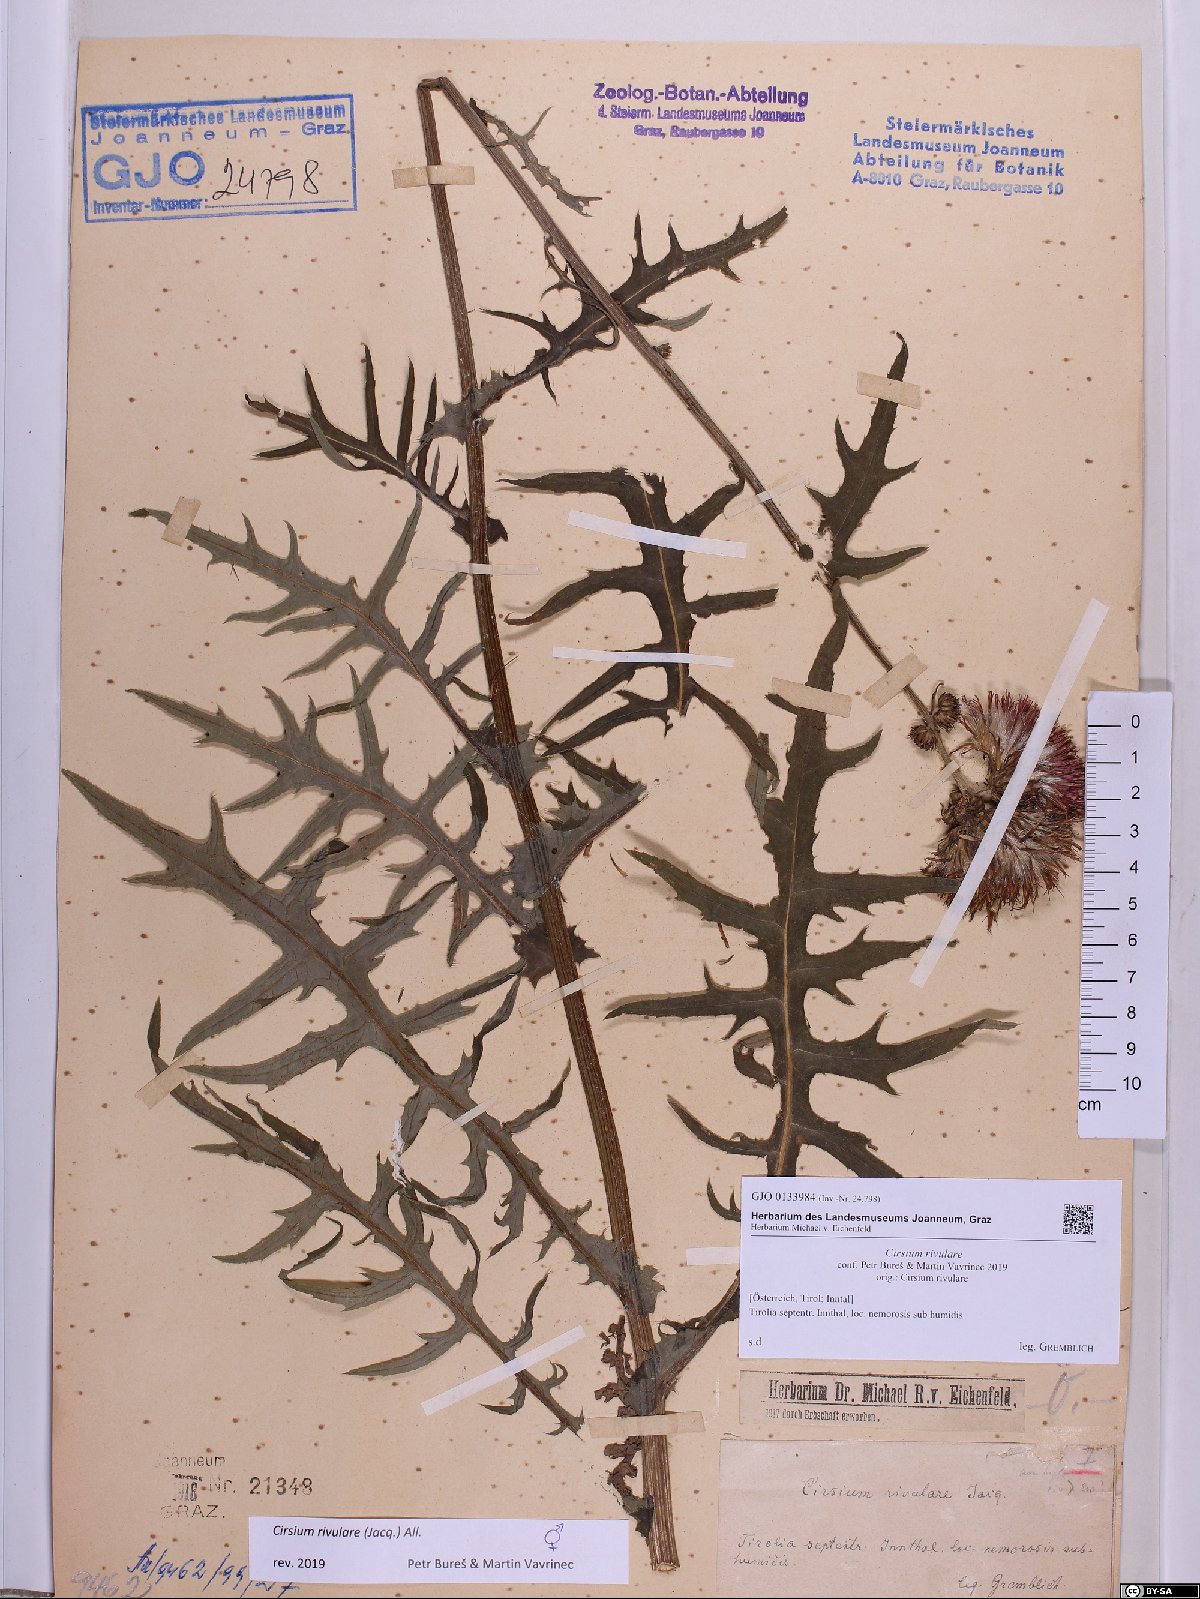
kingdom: Plantae
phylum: Tracheophyta
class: Magnoliopsida
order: Asterales
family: Asteraceae
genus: Cirsium
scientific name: Cirsium rivulare
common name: Brook thistle
